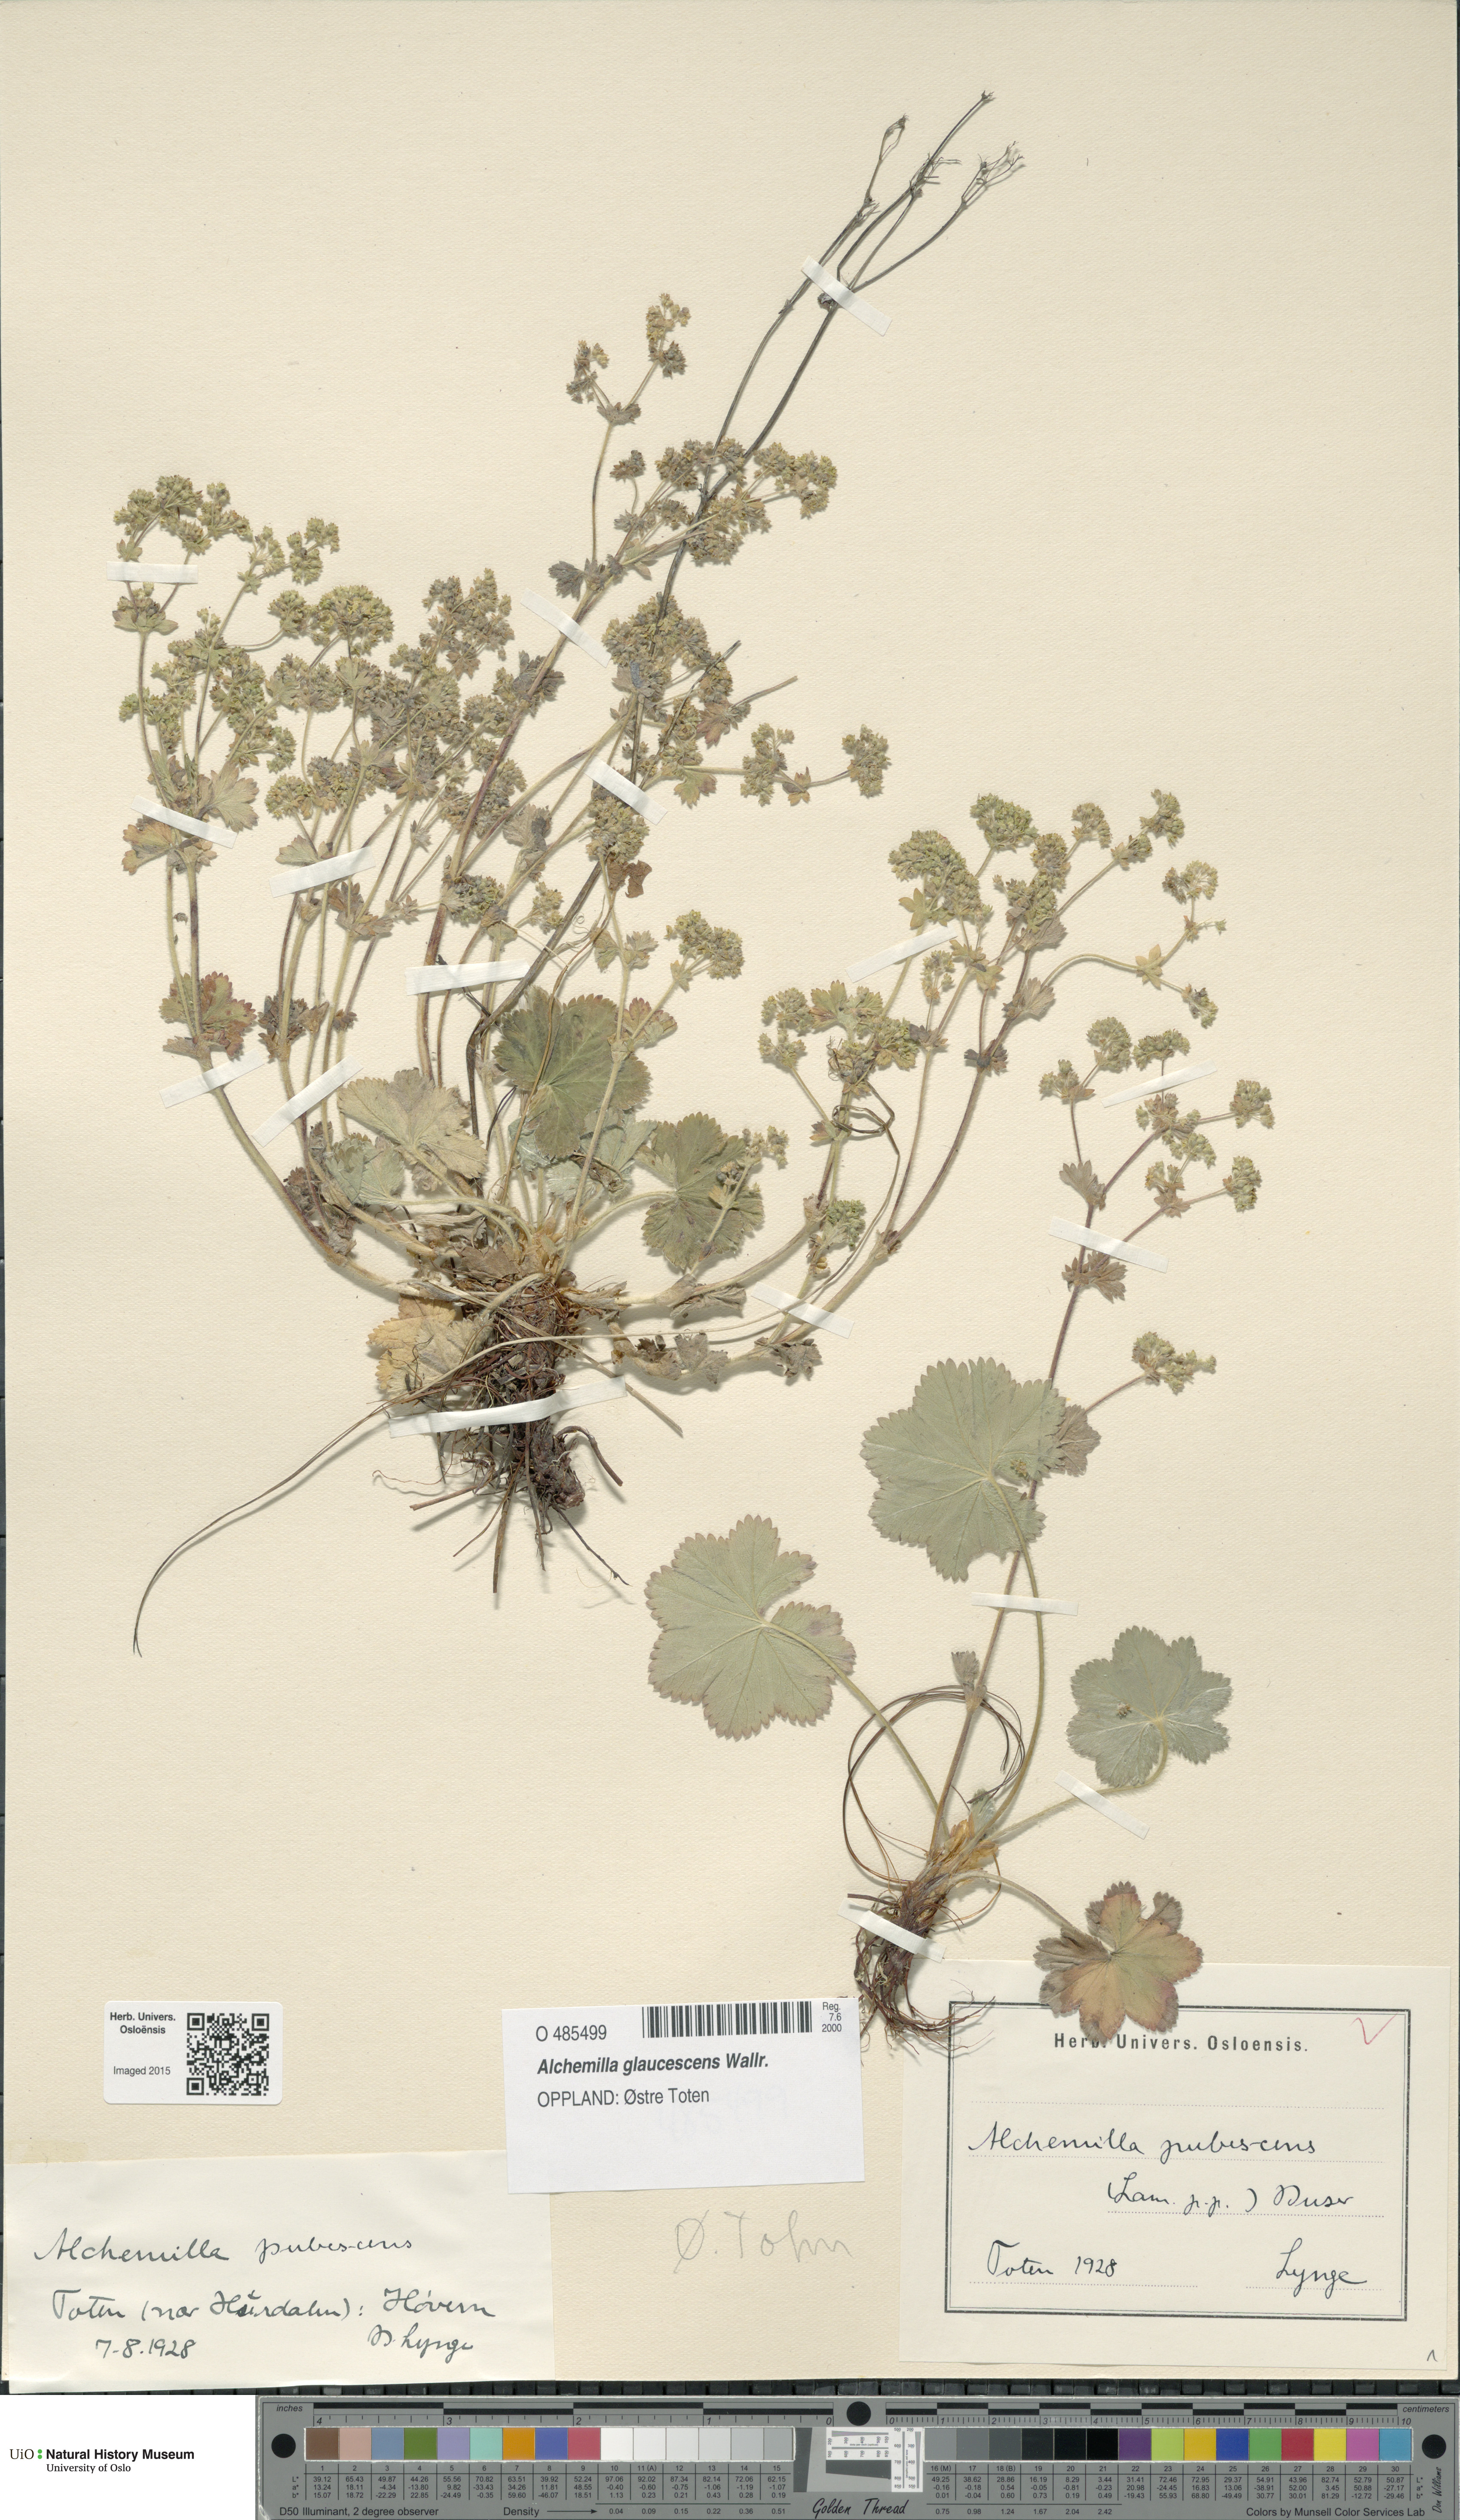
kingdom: Plantae
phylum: Tracheophyta
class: Magnoliopsida
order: Rosales
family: Rosaceae
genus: Alchemilla
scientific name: Alchemilla glaucescens
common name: Silky lady's mantle
